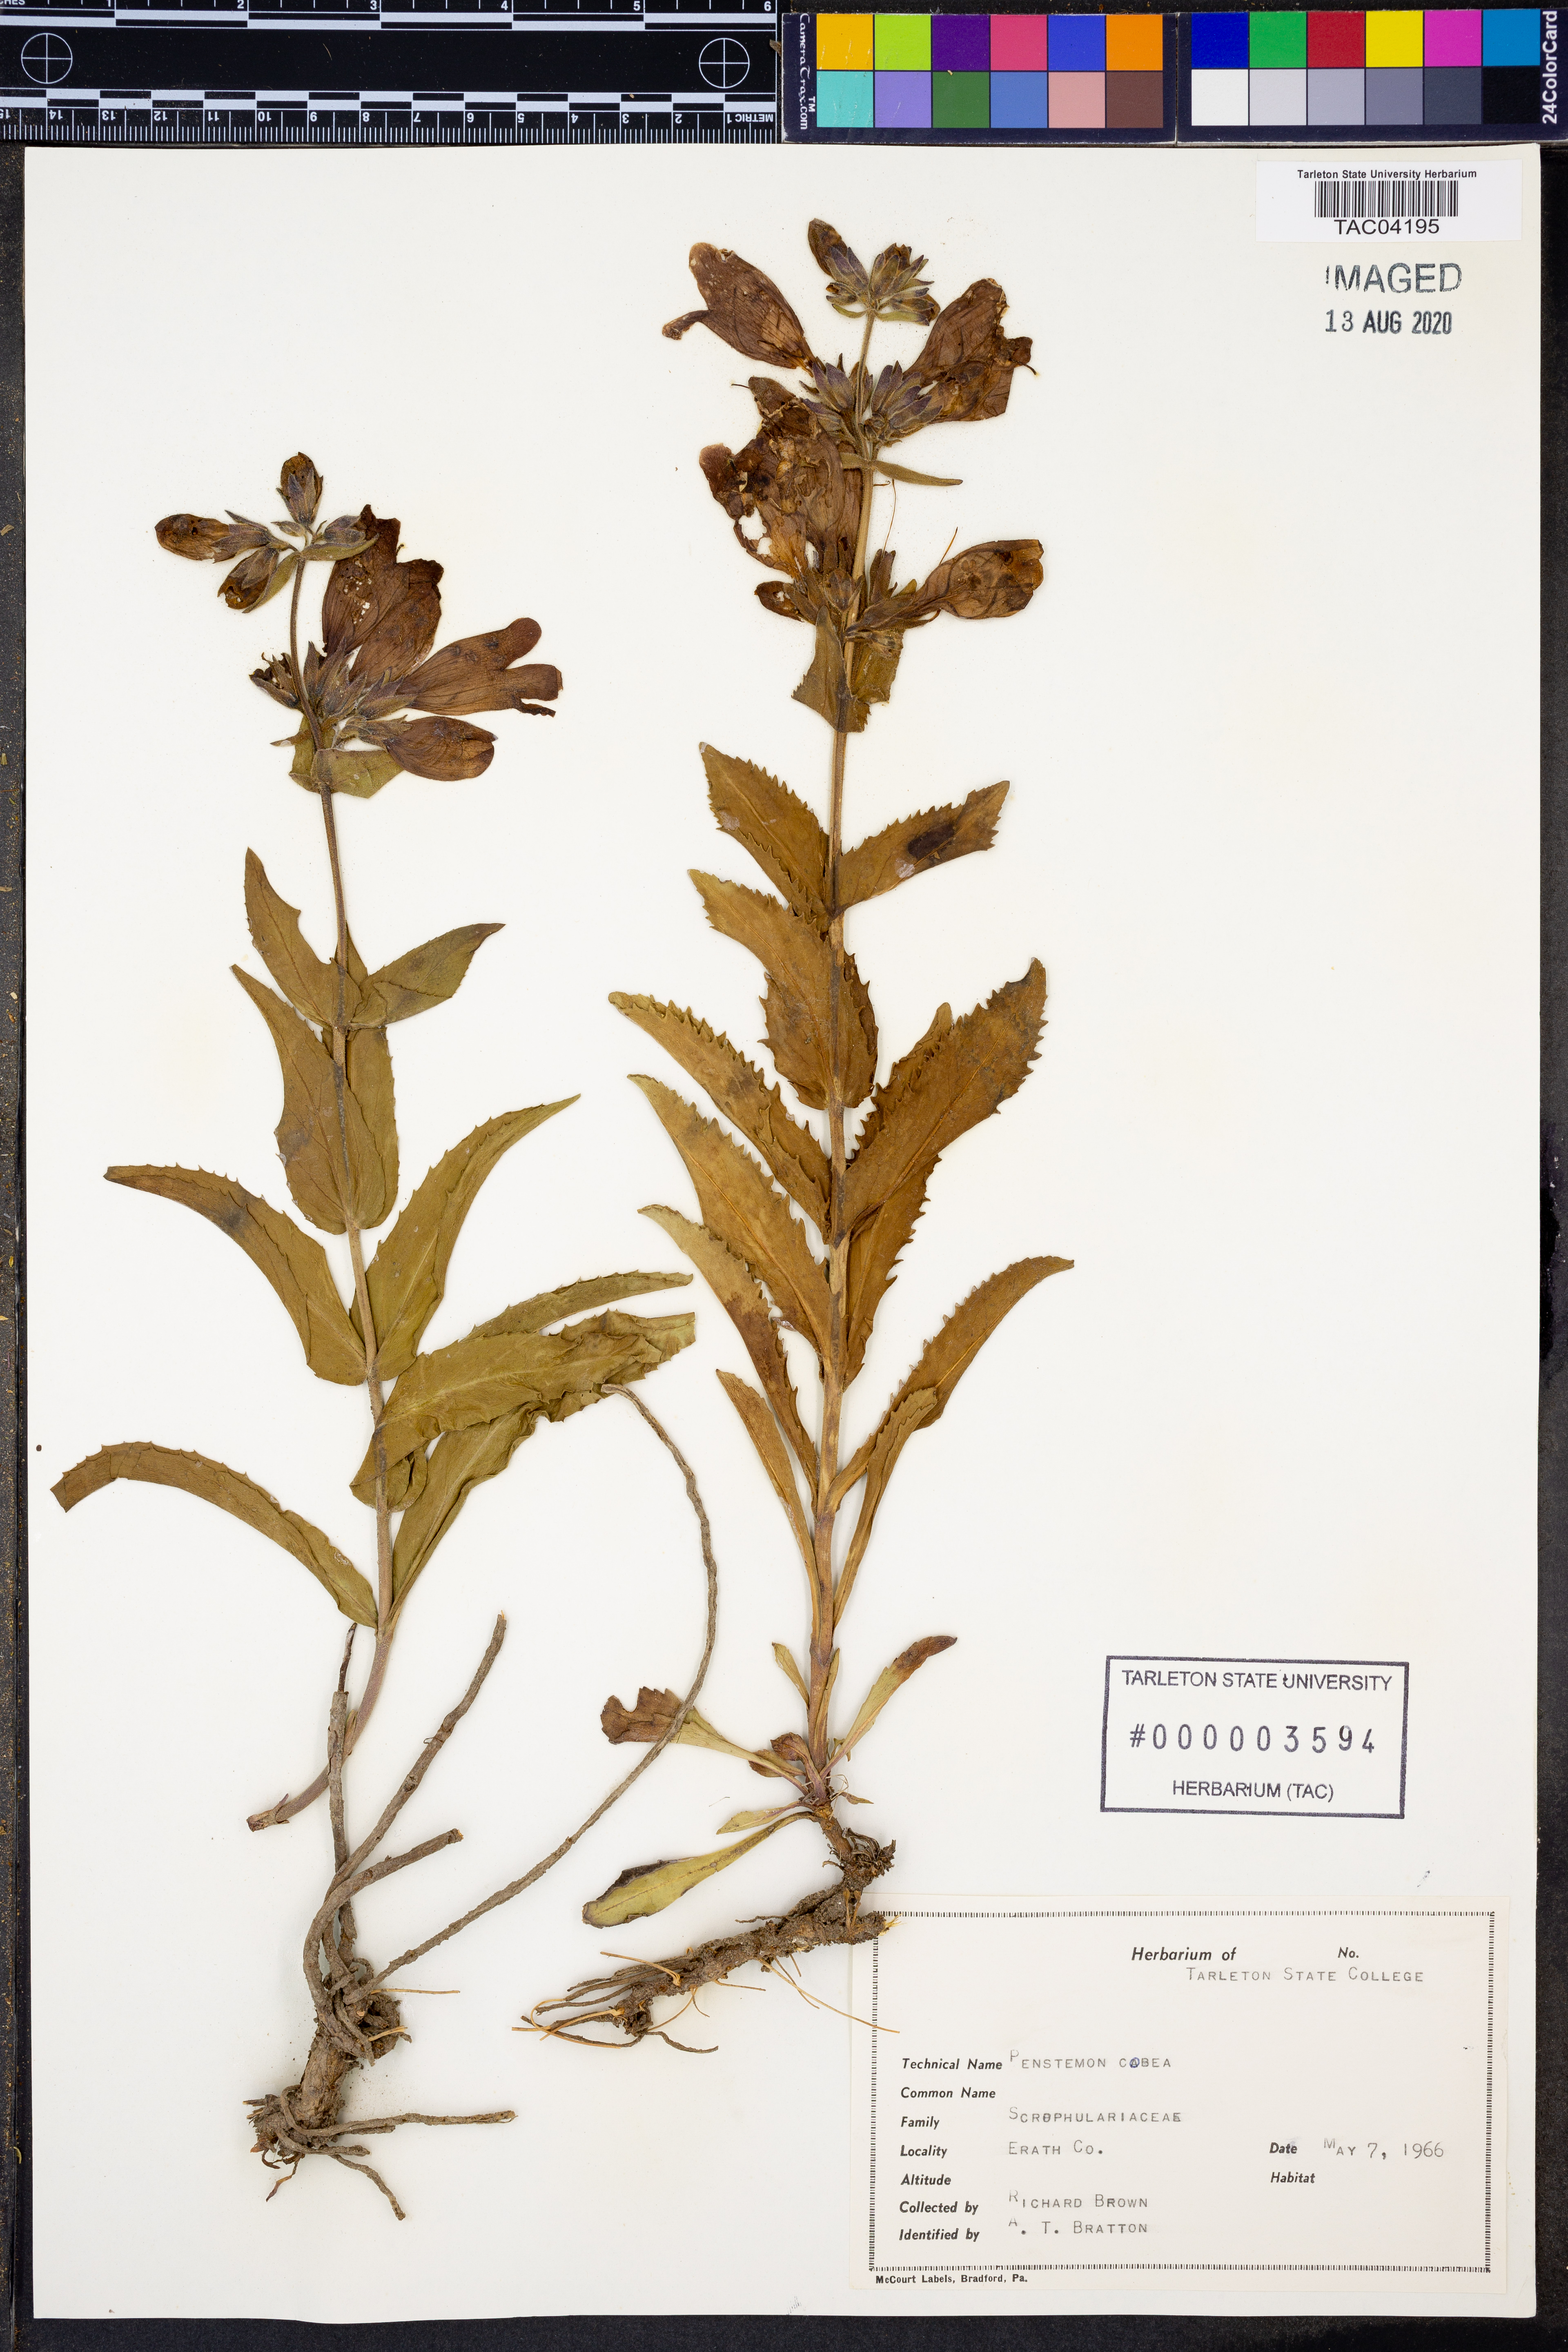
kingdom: Plantae
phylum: Tracheophyta
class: Magnoliopsida
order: Lamiales
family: Plantaginaceae
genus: Penstemon
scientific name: Penstemon cobaea
